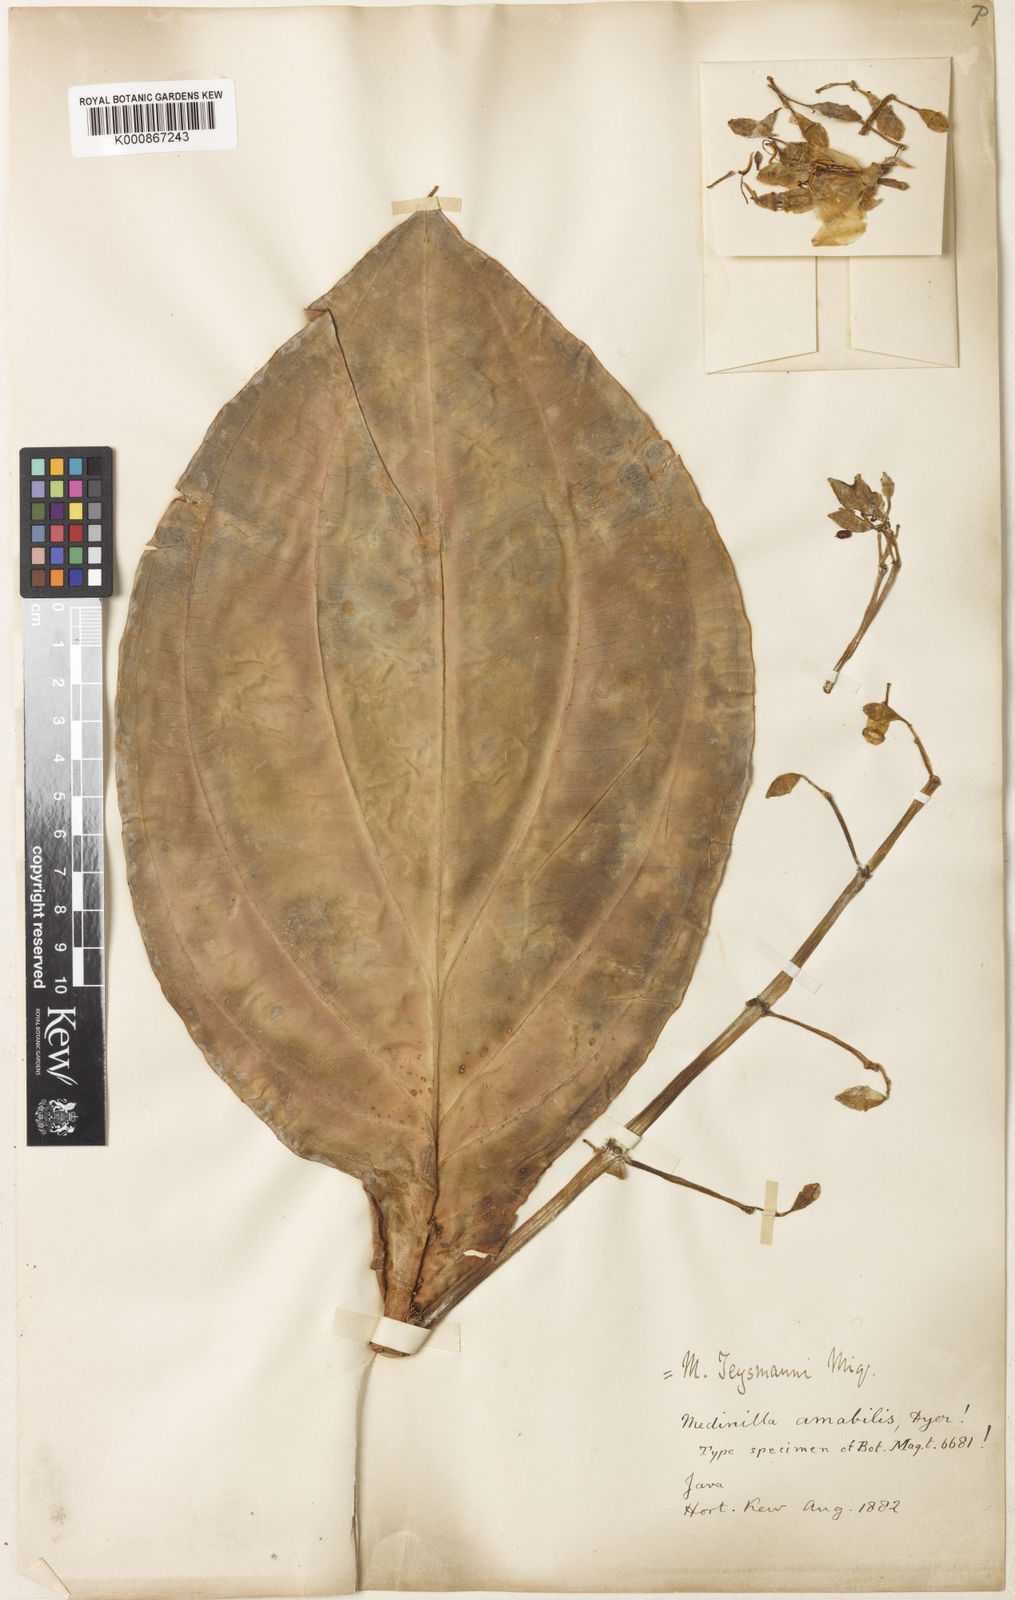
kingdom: Plantae
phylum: Tracheophyta
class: Magnoliopsida
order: Myrtales
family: Melastomataceae
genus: Medinilla
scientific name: Medinilla teysmannii
